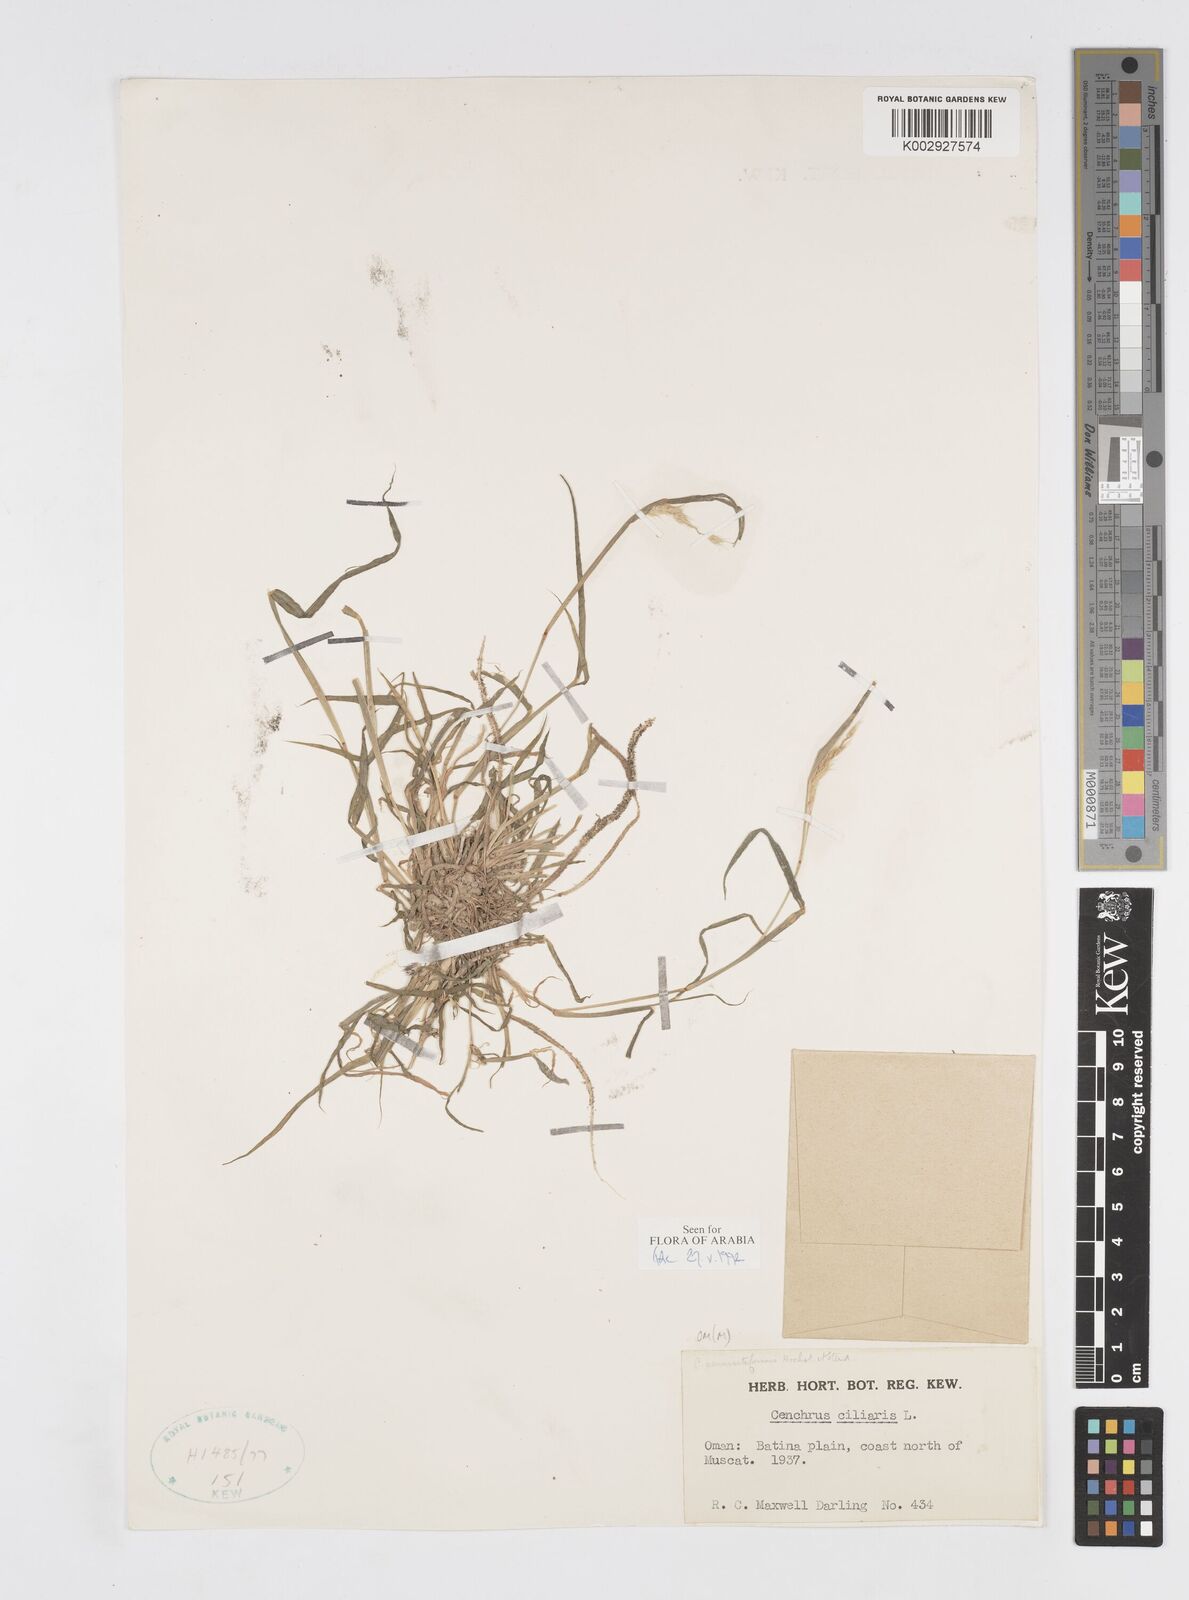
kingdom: Plantae
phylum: Tracheophyta
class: Liliopsida
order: Poales
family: Poaceae
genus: Cenchrus
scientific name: Cenchrus pennisetiformis
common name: Cloncurry
